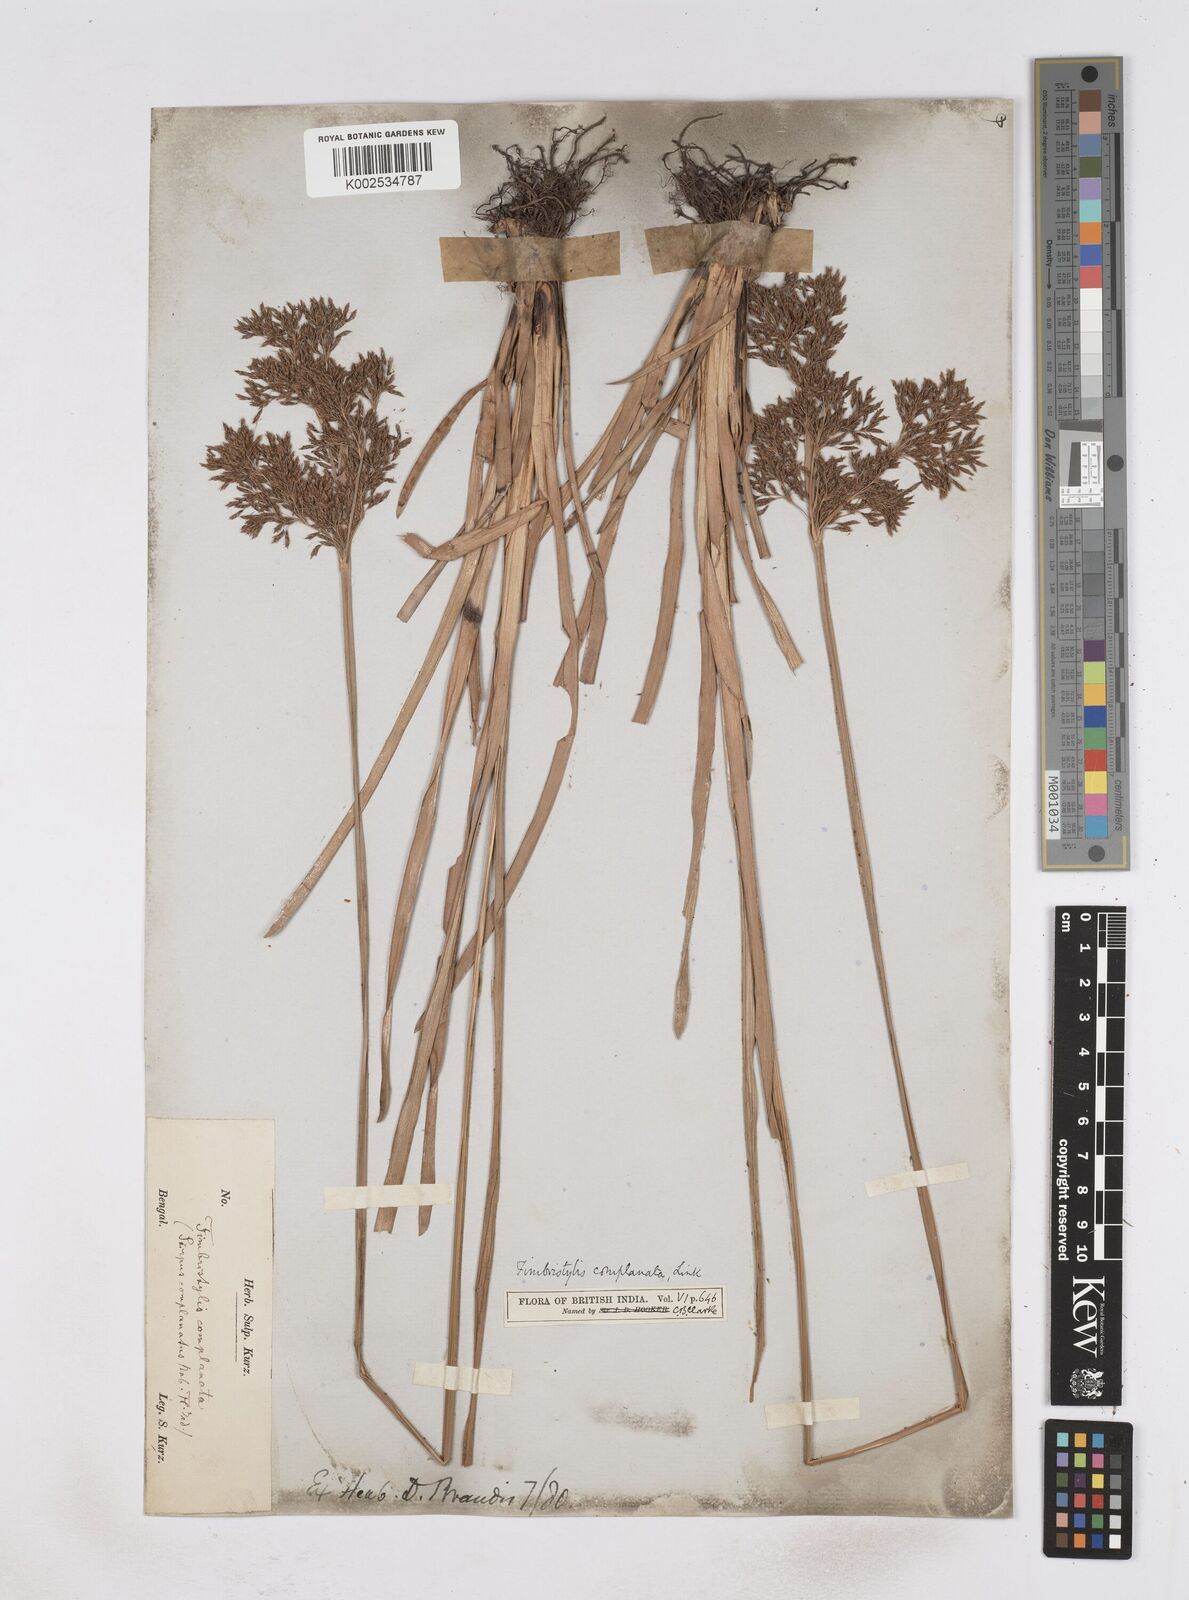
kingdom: Plantae
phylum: Tracheophyta
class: Liliopsida
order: Poales
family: Cyperaceae
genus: Fimbristylis
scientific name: Fimbristylis complanata
